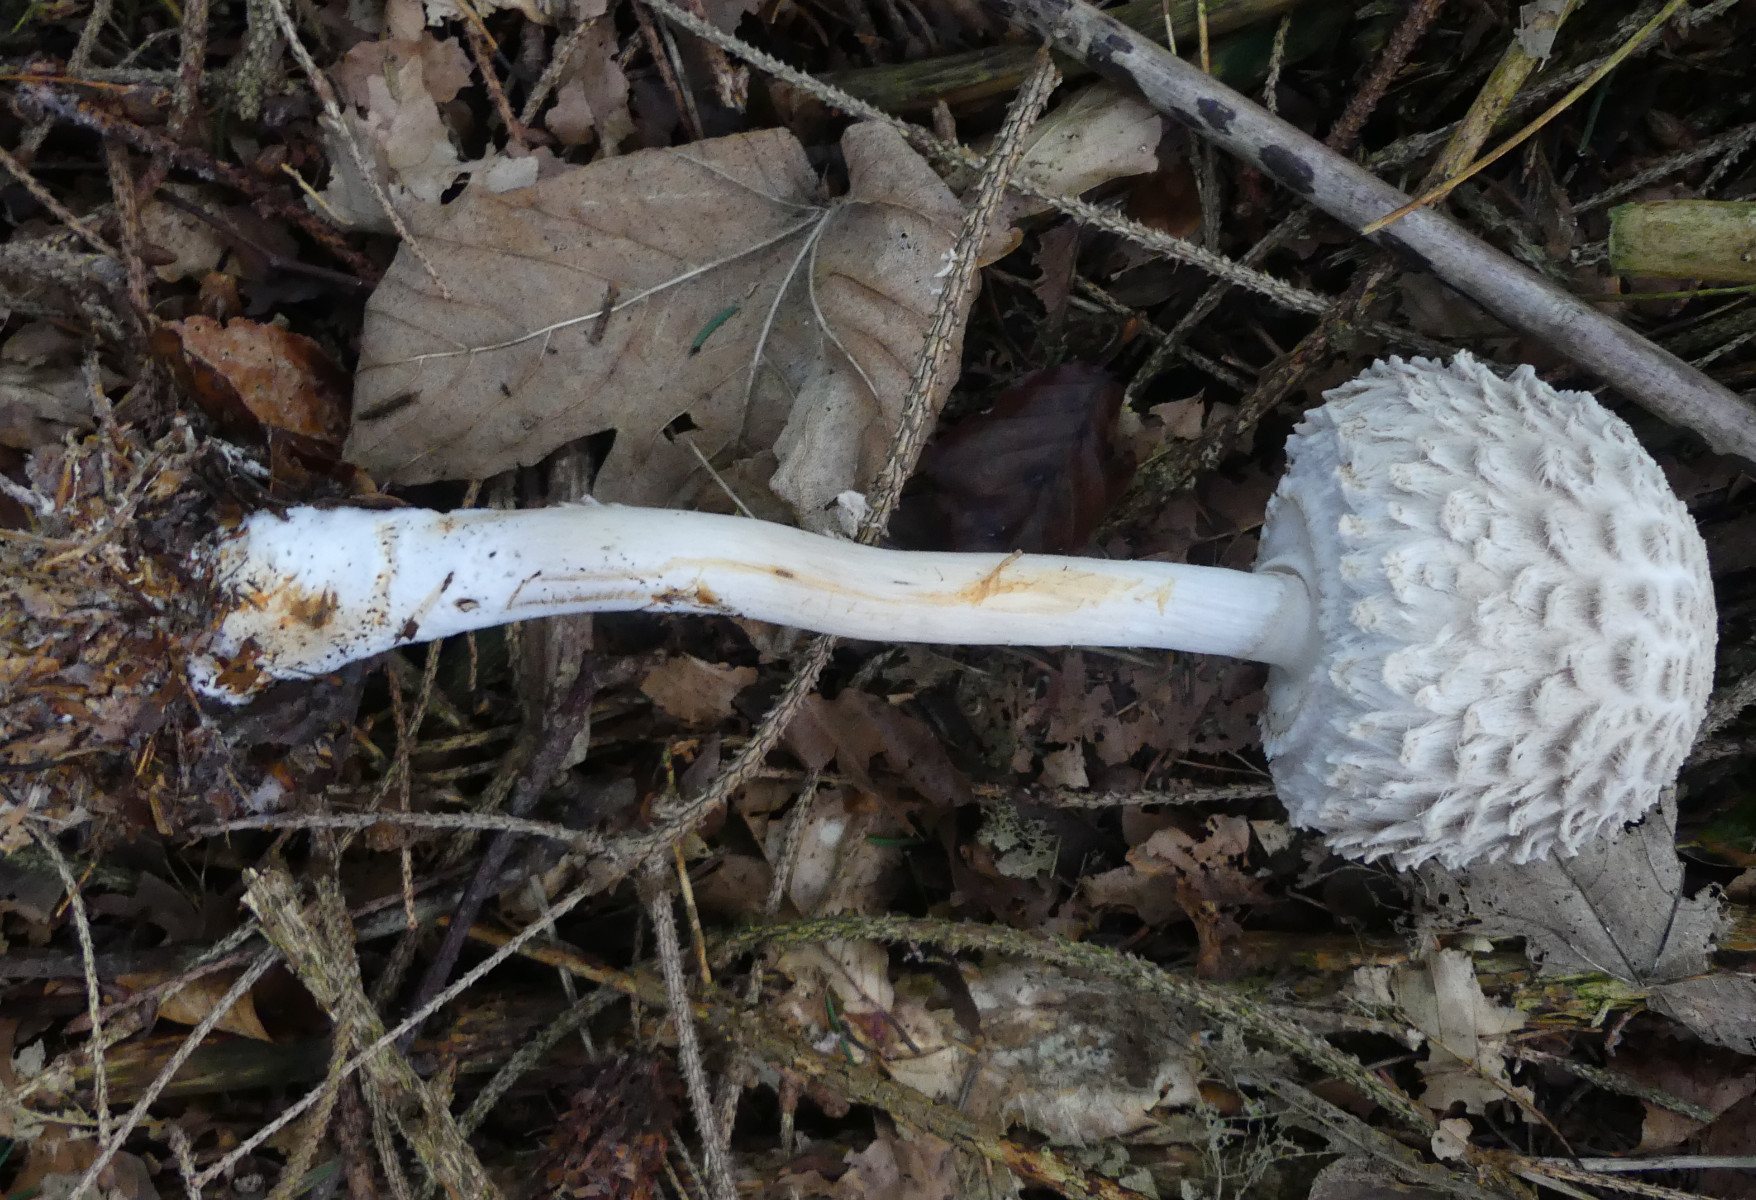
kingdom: Fungi
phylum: Basidiomycota
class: Agaricomycetes
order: Agaricales
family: Agaricaceae
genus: Chlorophyllum
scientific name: Chlorophyllum olivieri
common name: almindelig rabarberhat
